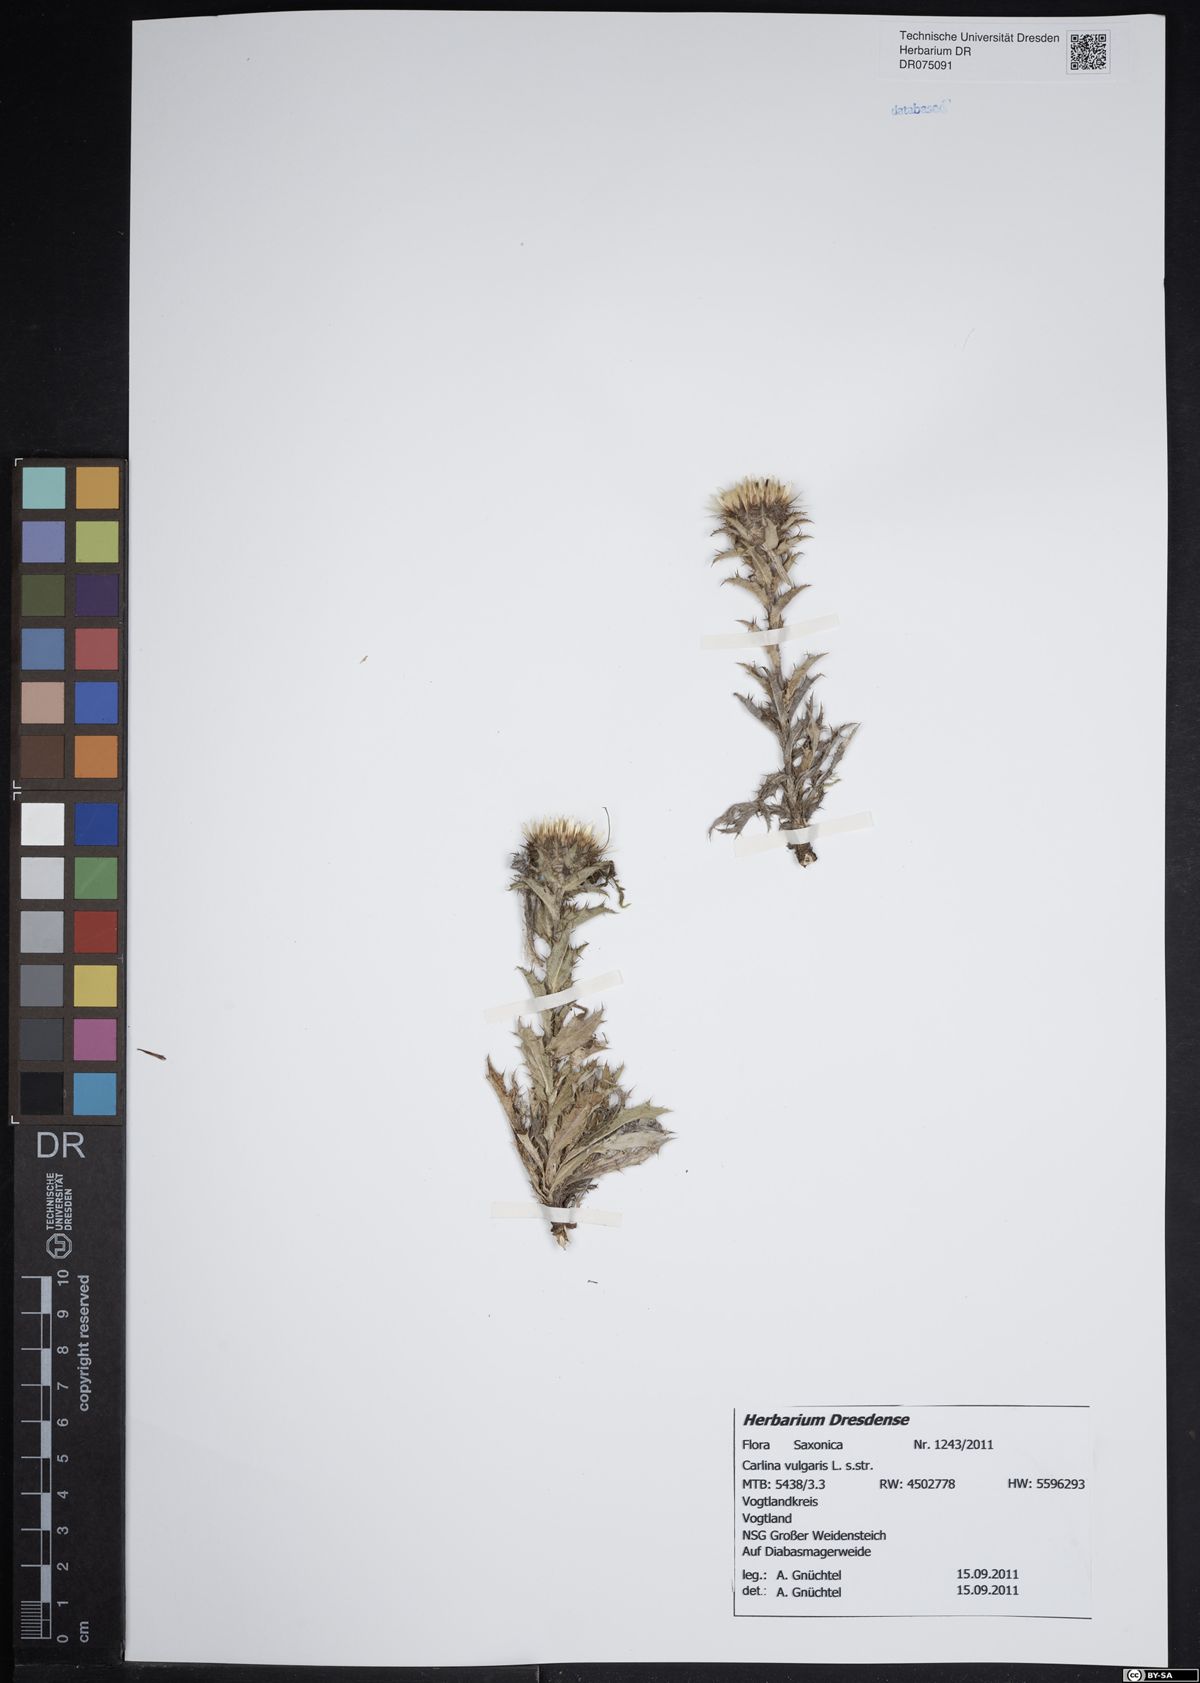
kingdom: Plantae
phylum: Tracheophyta
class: Magnoliopsida
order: Asterales
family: Asteraceae
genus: Carlina
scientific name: Carlina vulgaris
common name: Carline thistle
